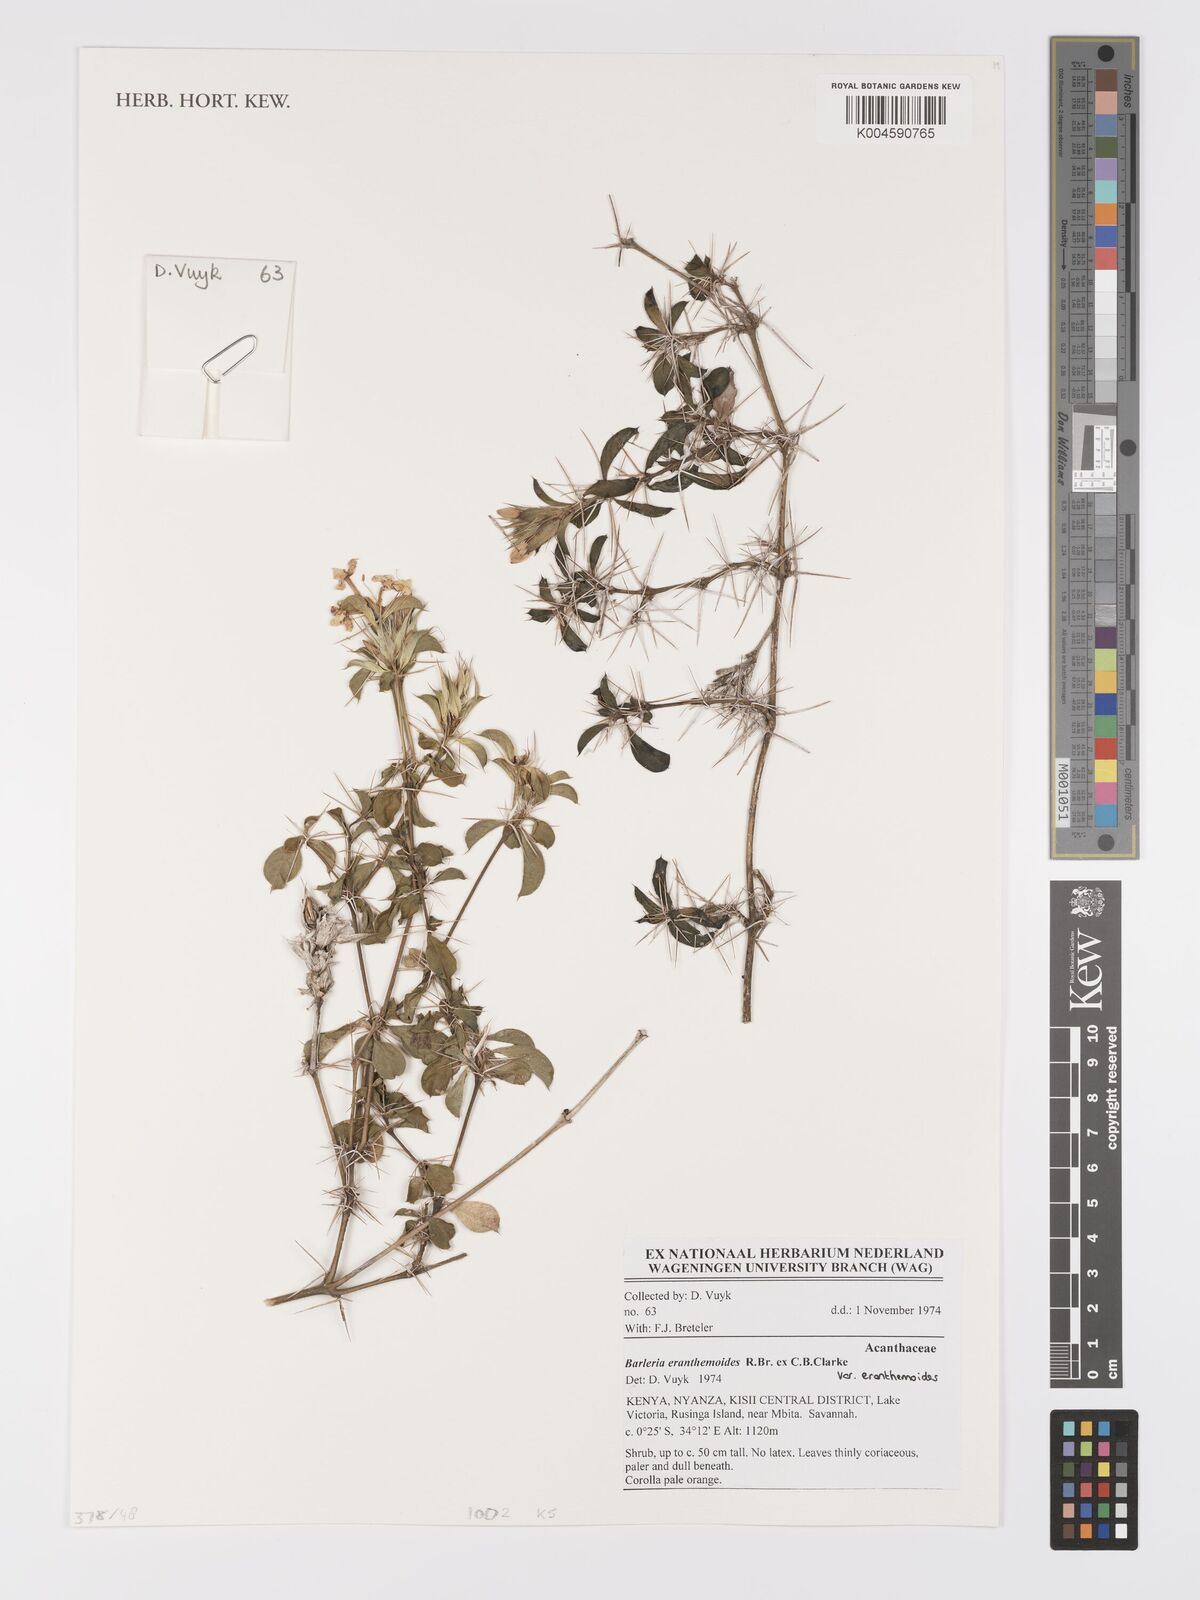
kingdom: Plantae
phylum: Tracheophyta
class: Magnoliopsida
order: Lamiales
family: Acanthaceae
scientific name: Acanthaceae
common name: Acanthaceae
